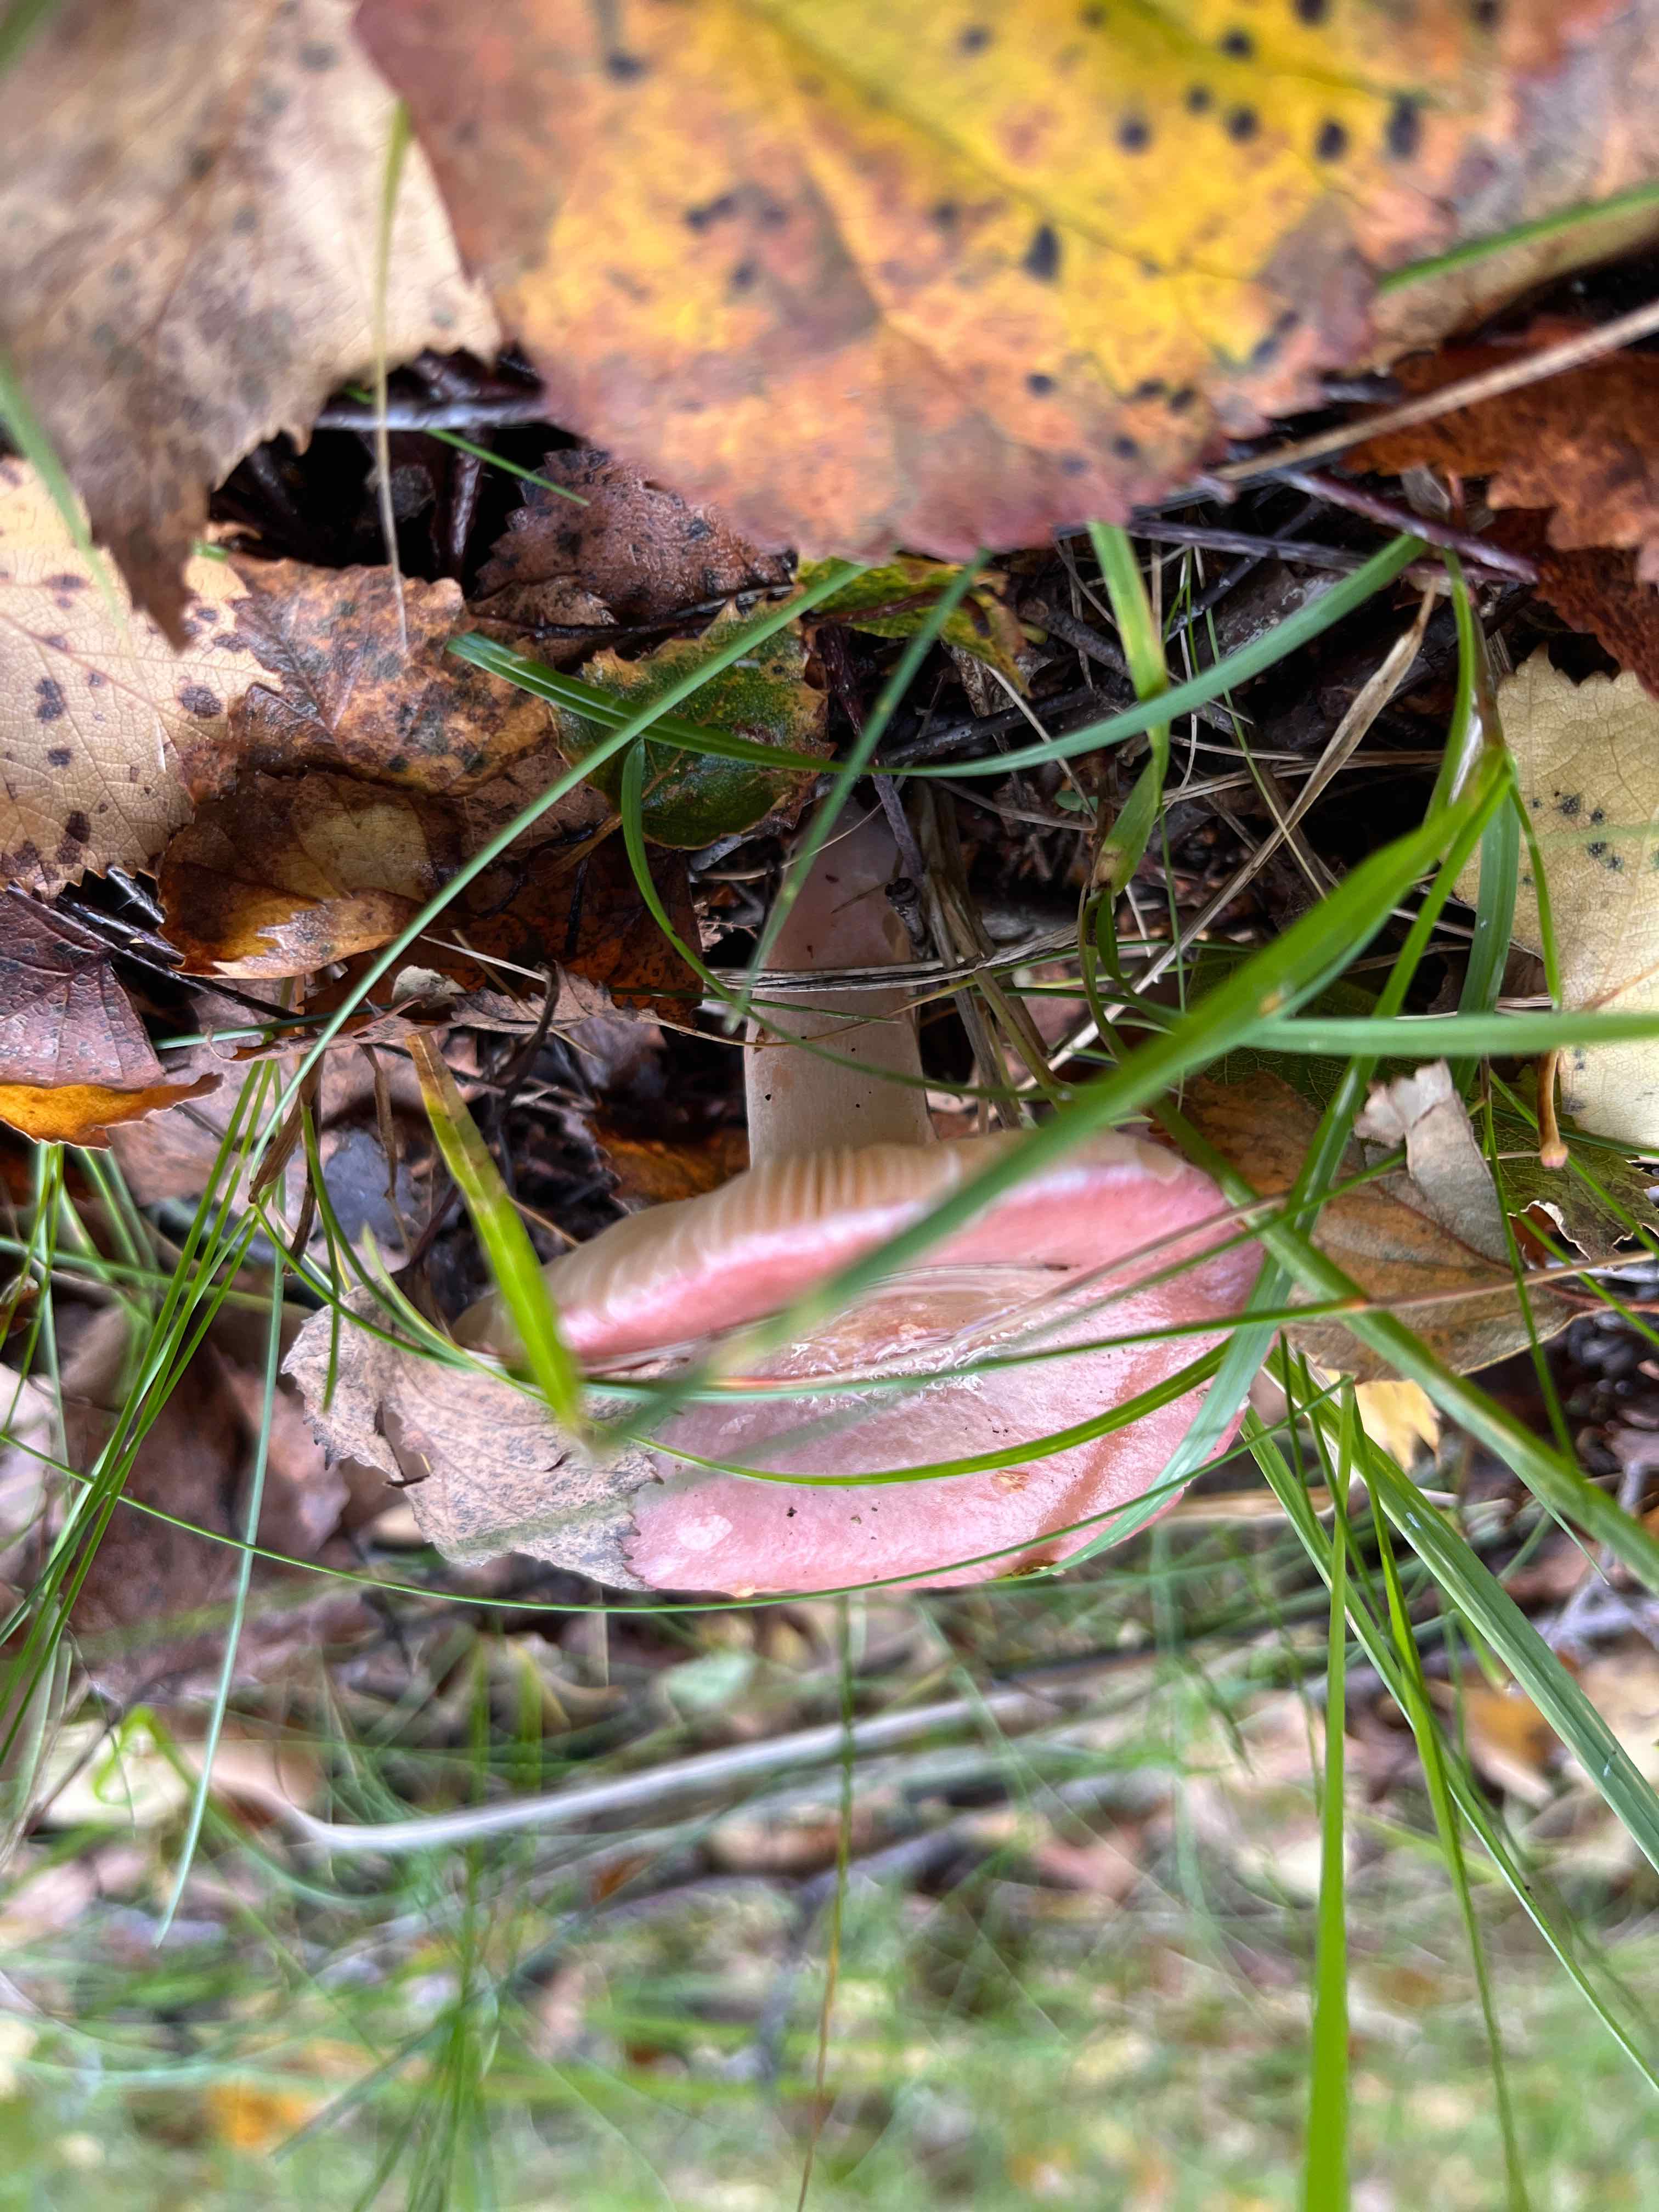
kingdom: Fungi
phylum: Basidiomycota
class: Agaricomycetes
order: Russulales
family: Russulaceae
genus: Russula
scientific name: Russula
